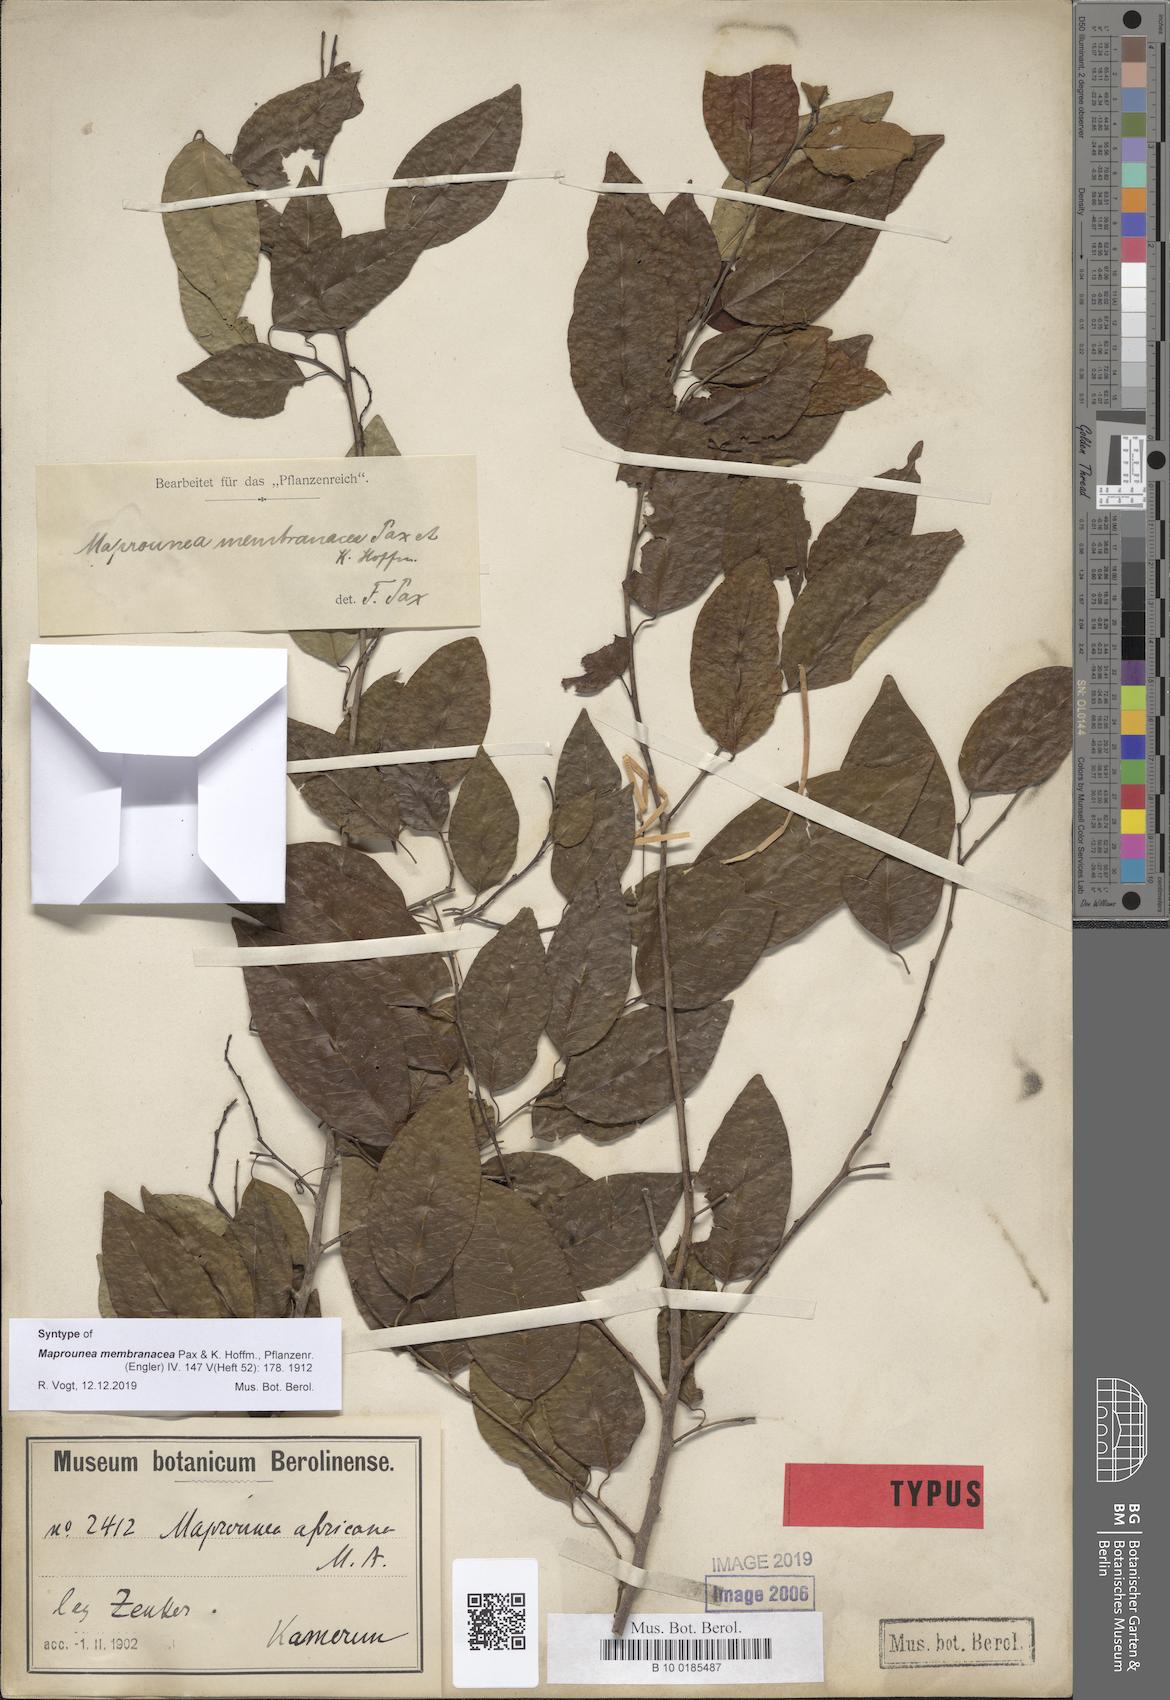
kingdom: Plantae
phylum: Tracheophyta
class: Magnoliopsida
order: Malpighiales
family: Euphorbiaceae
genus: Maprounea
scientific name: Maprounea membranacea
